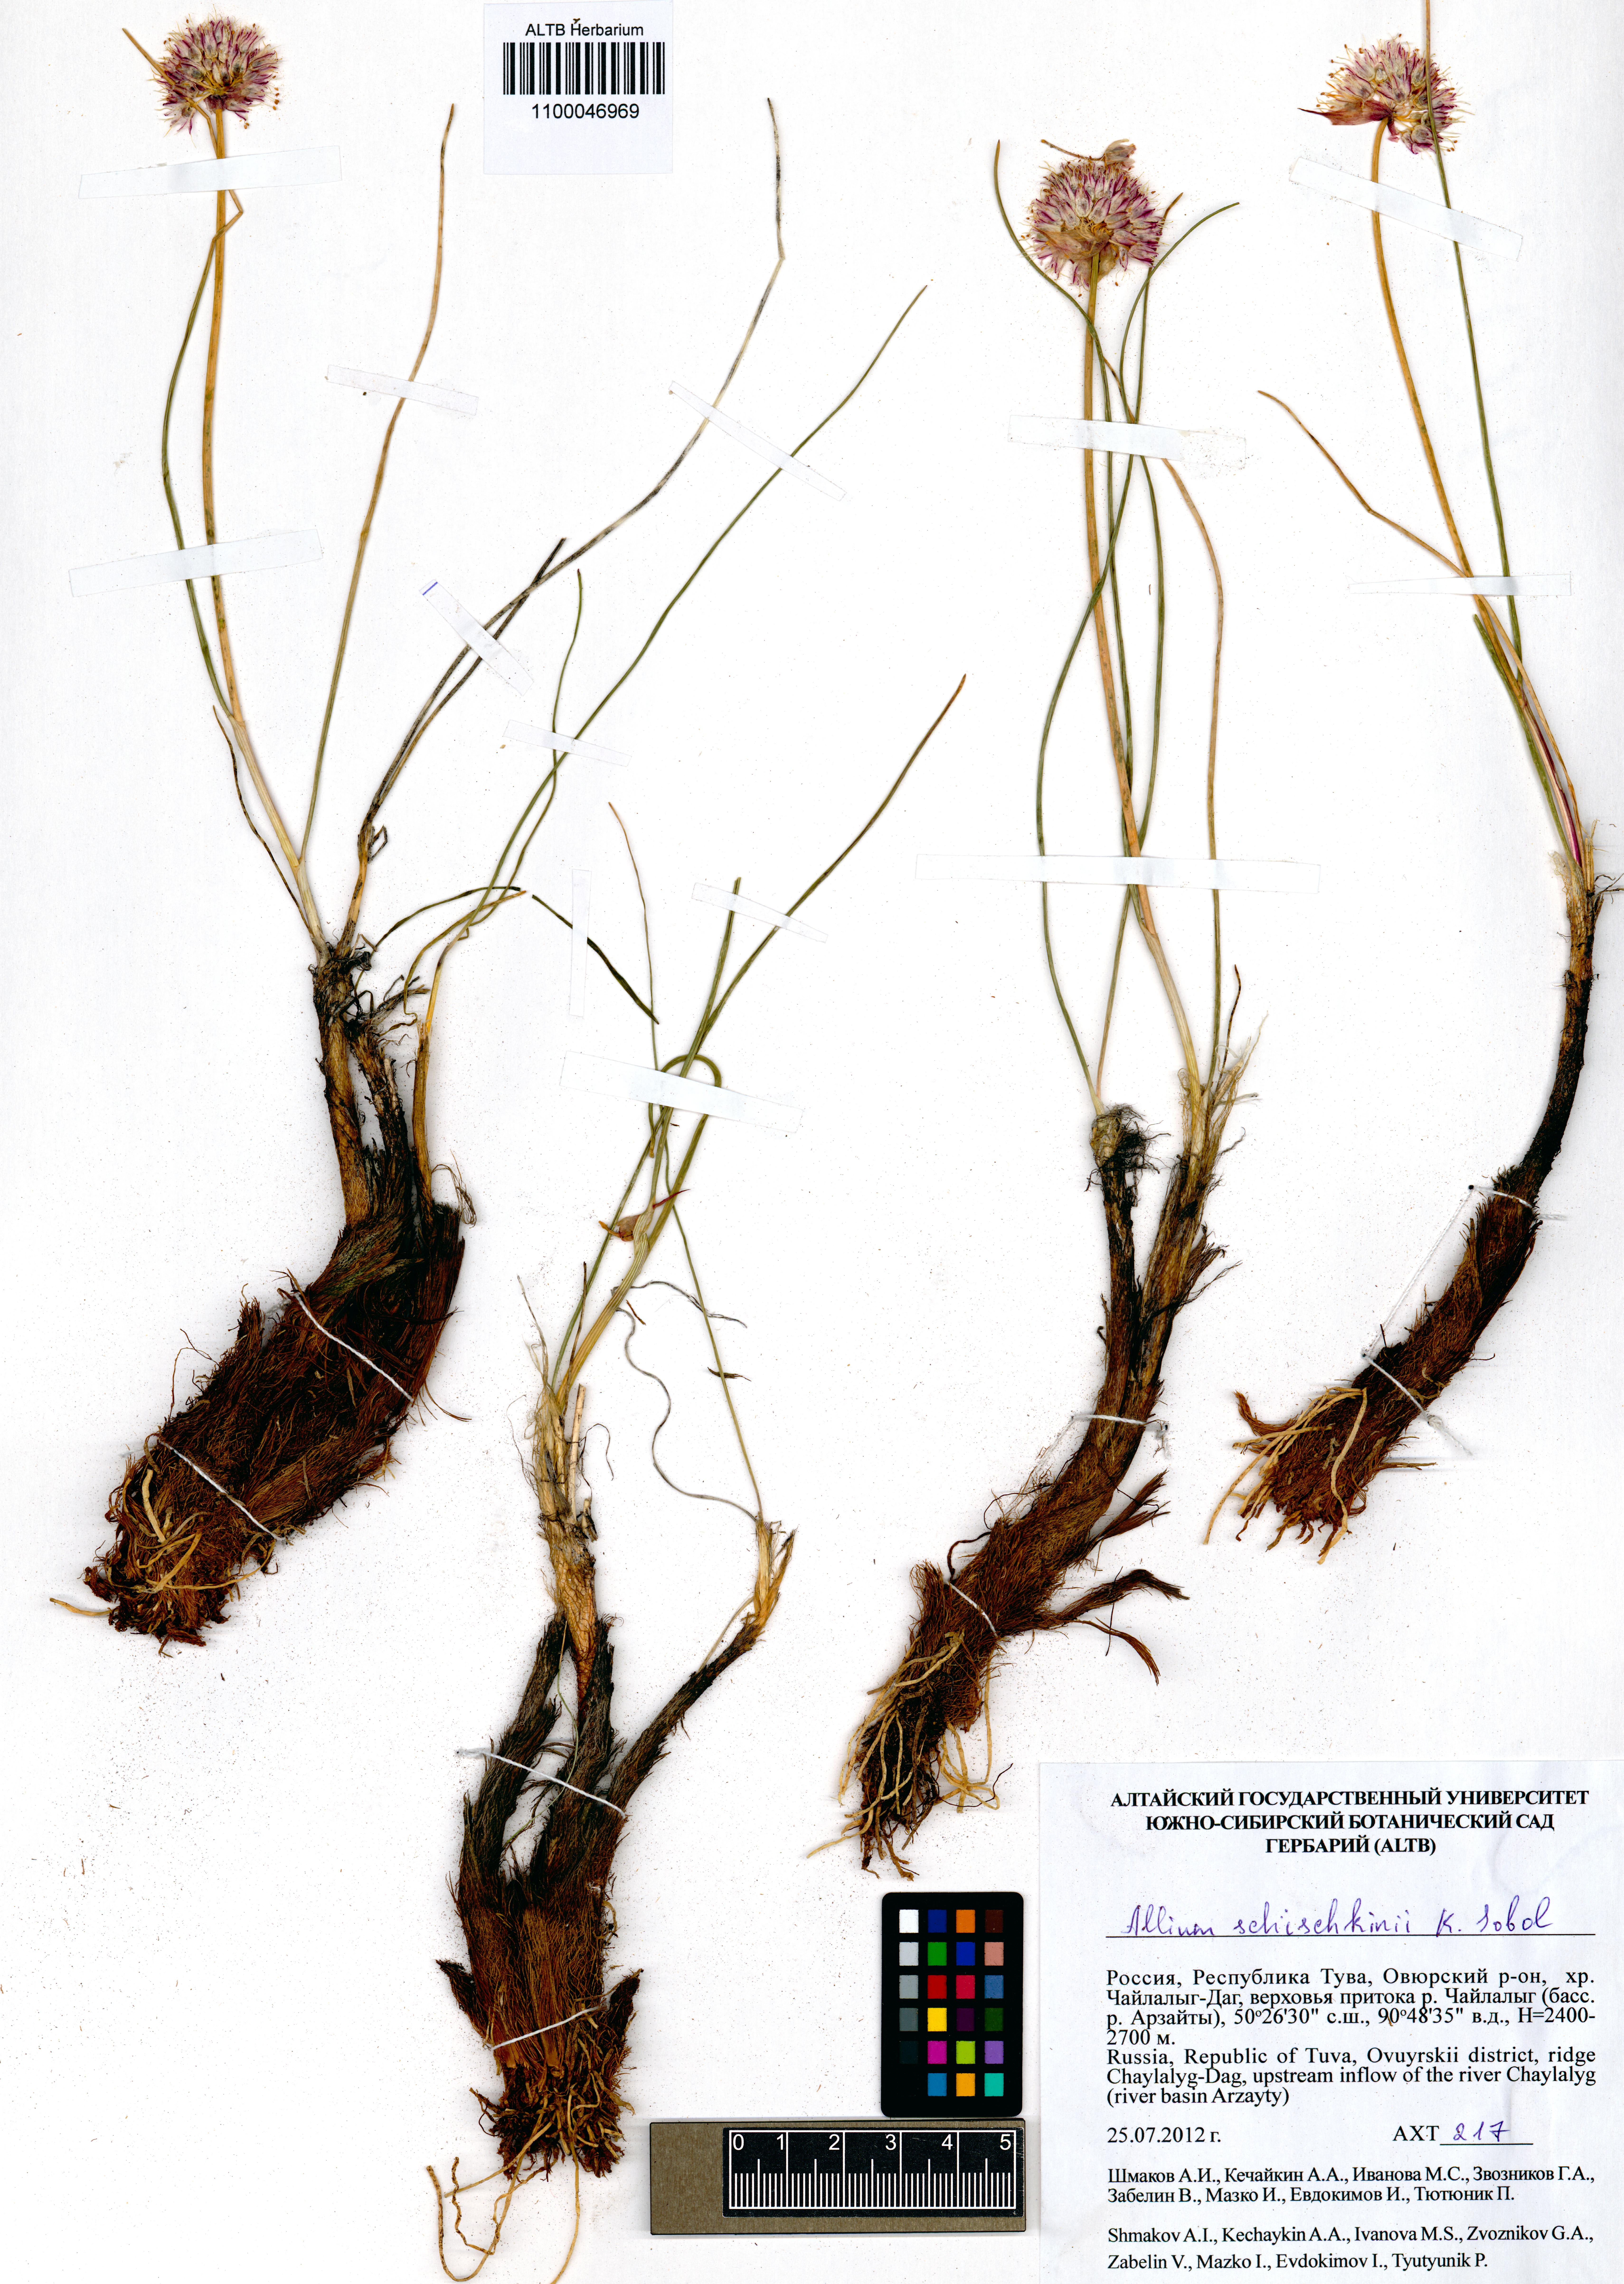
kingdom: Plantae
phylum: Tracheophyta
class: Liliopsida
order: Asparagales
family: Amaryllidaceae
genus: Allium
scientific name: Allium schischkinii
